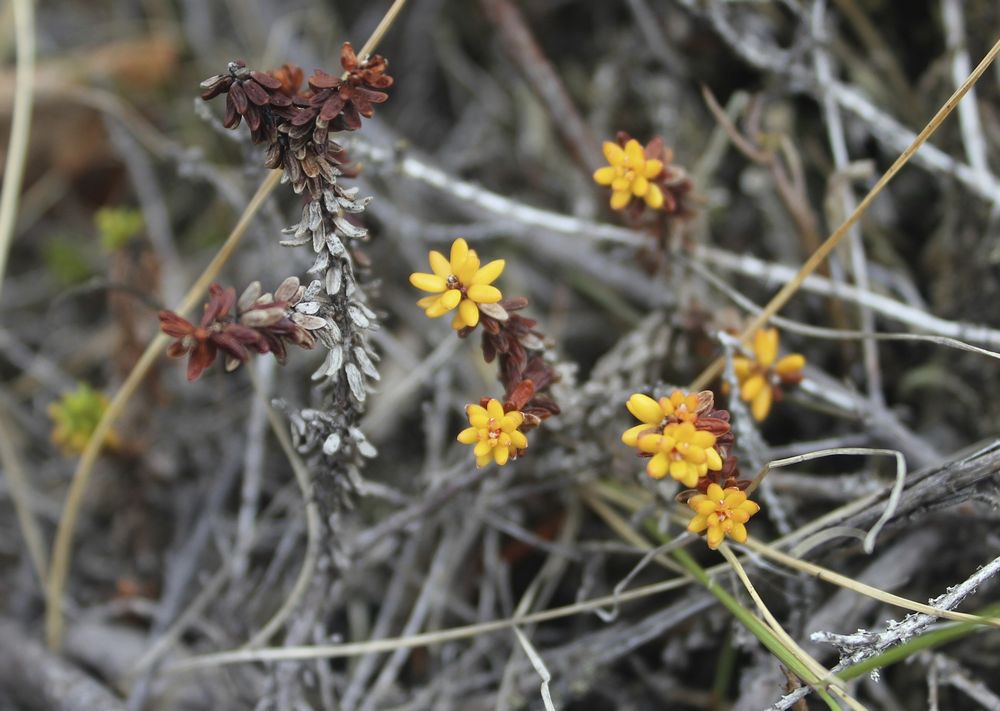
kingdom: Plantae
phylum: Tracheophyta
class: Magnoliopsida
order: Ericales
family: Ericaceae
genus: Empetrum
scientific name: Empetrum hermaphroditum
